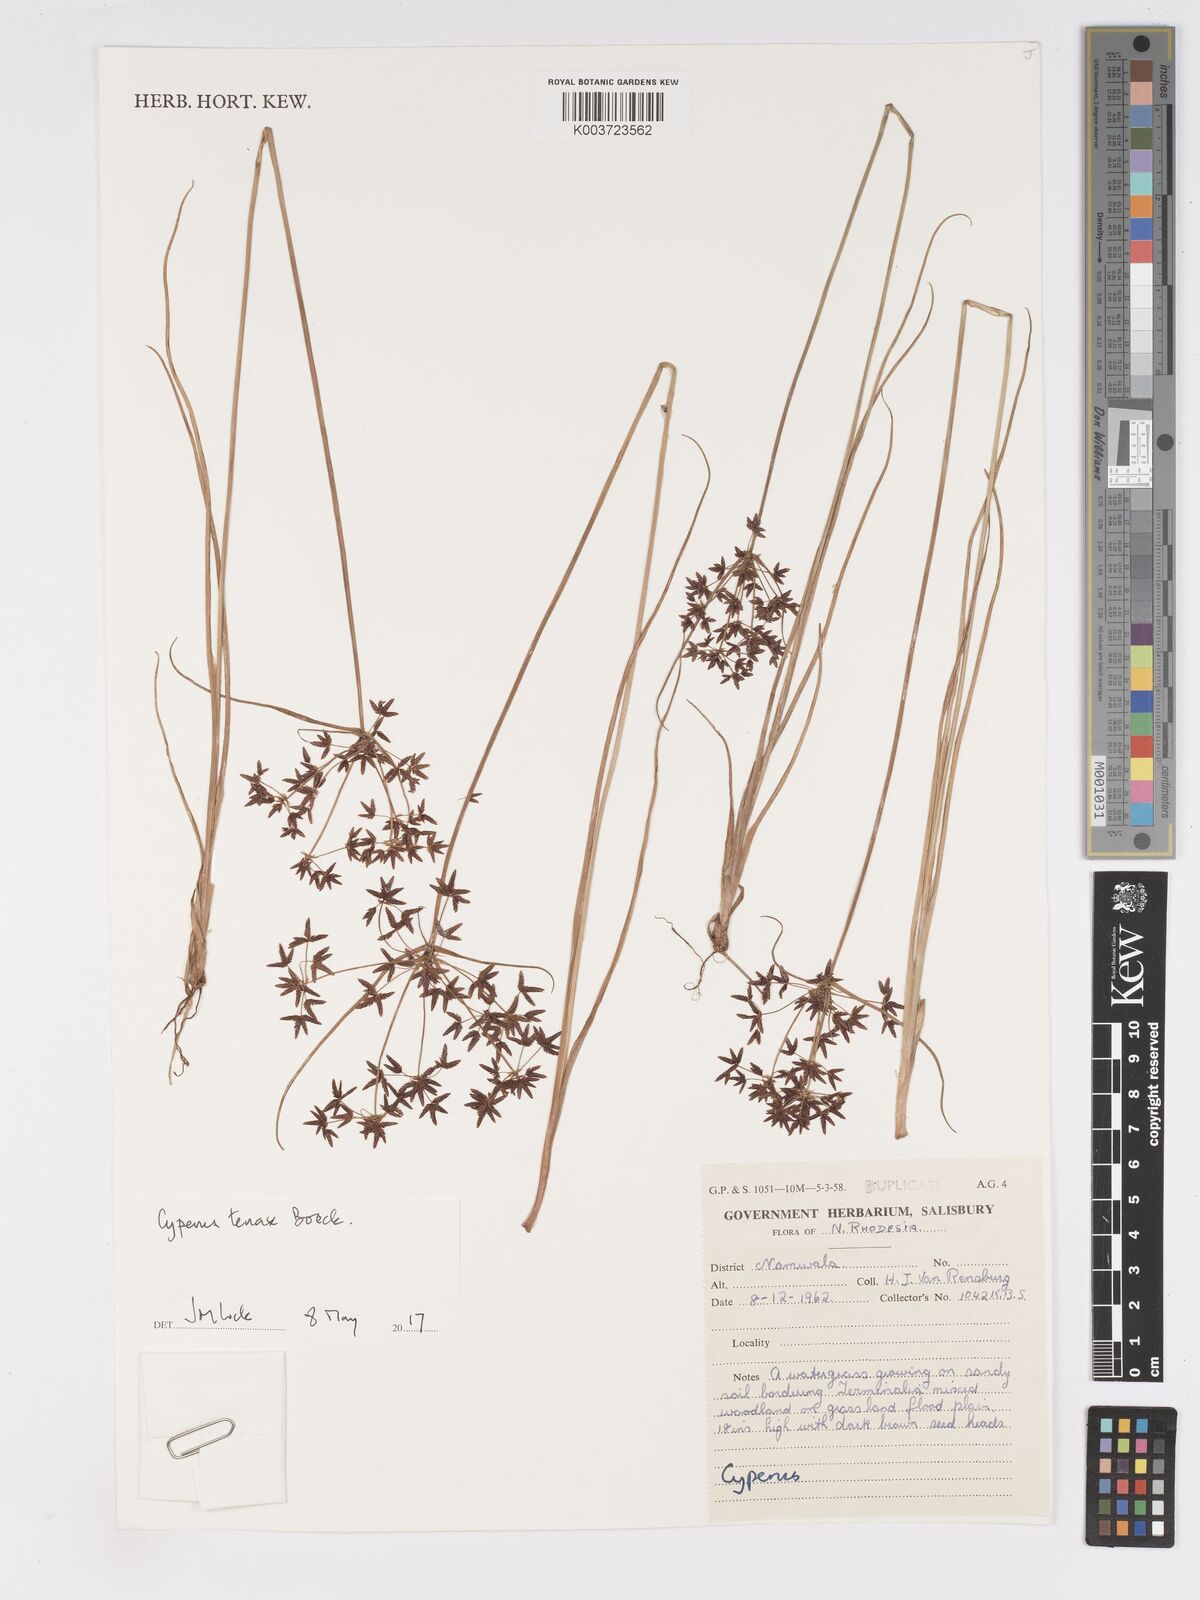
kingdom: Plantae
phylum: Tracheophyta
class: Liliopsida
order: Poales
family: Cyperaceae
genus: Cyperus
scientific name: Cyperus tenax
